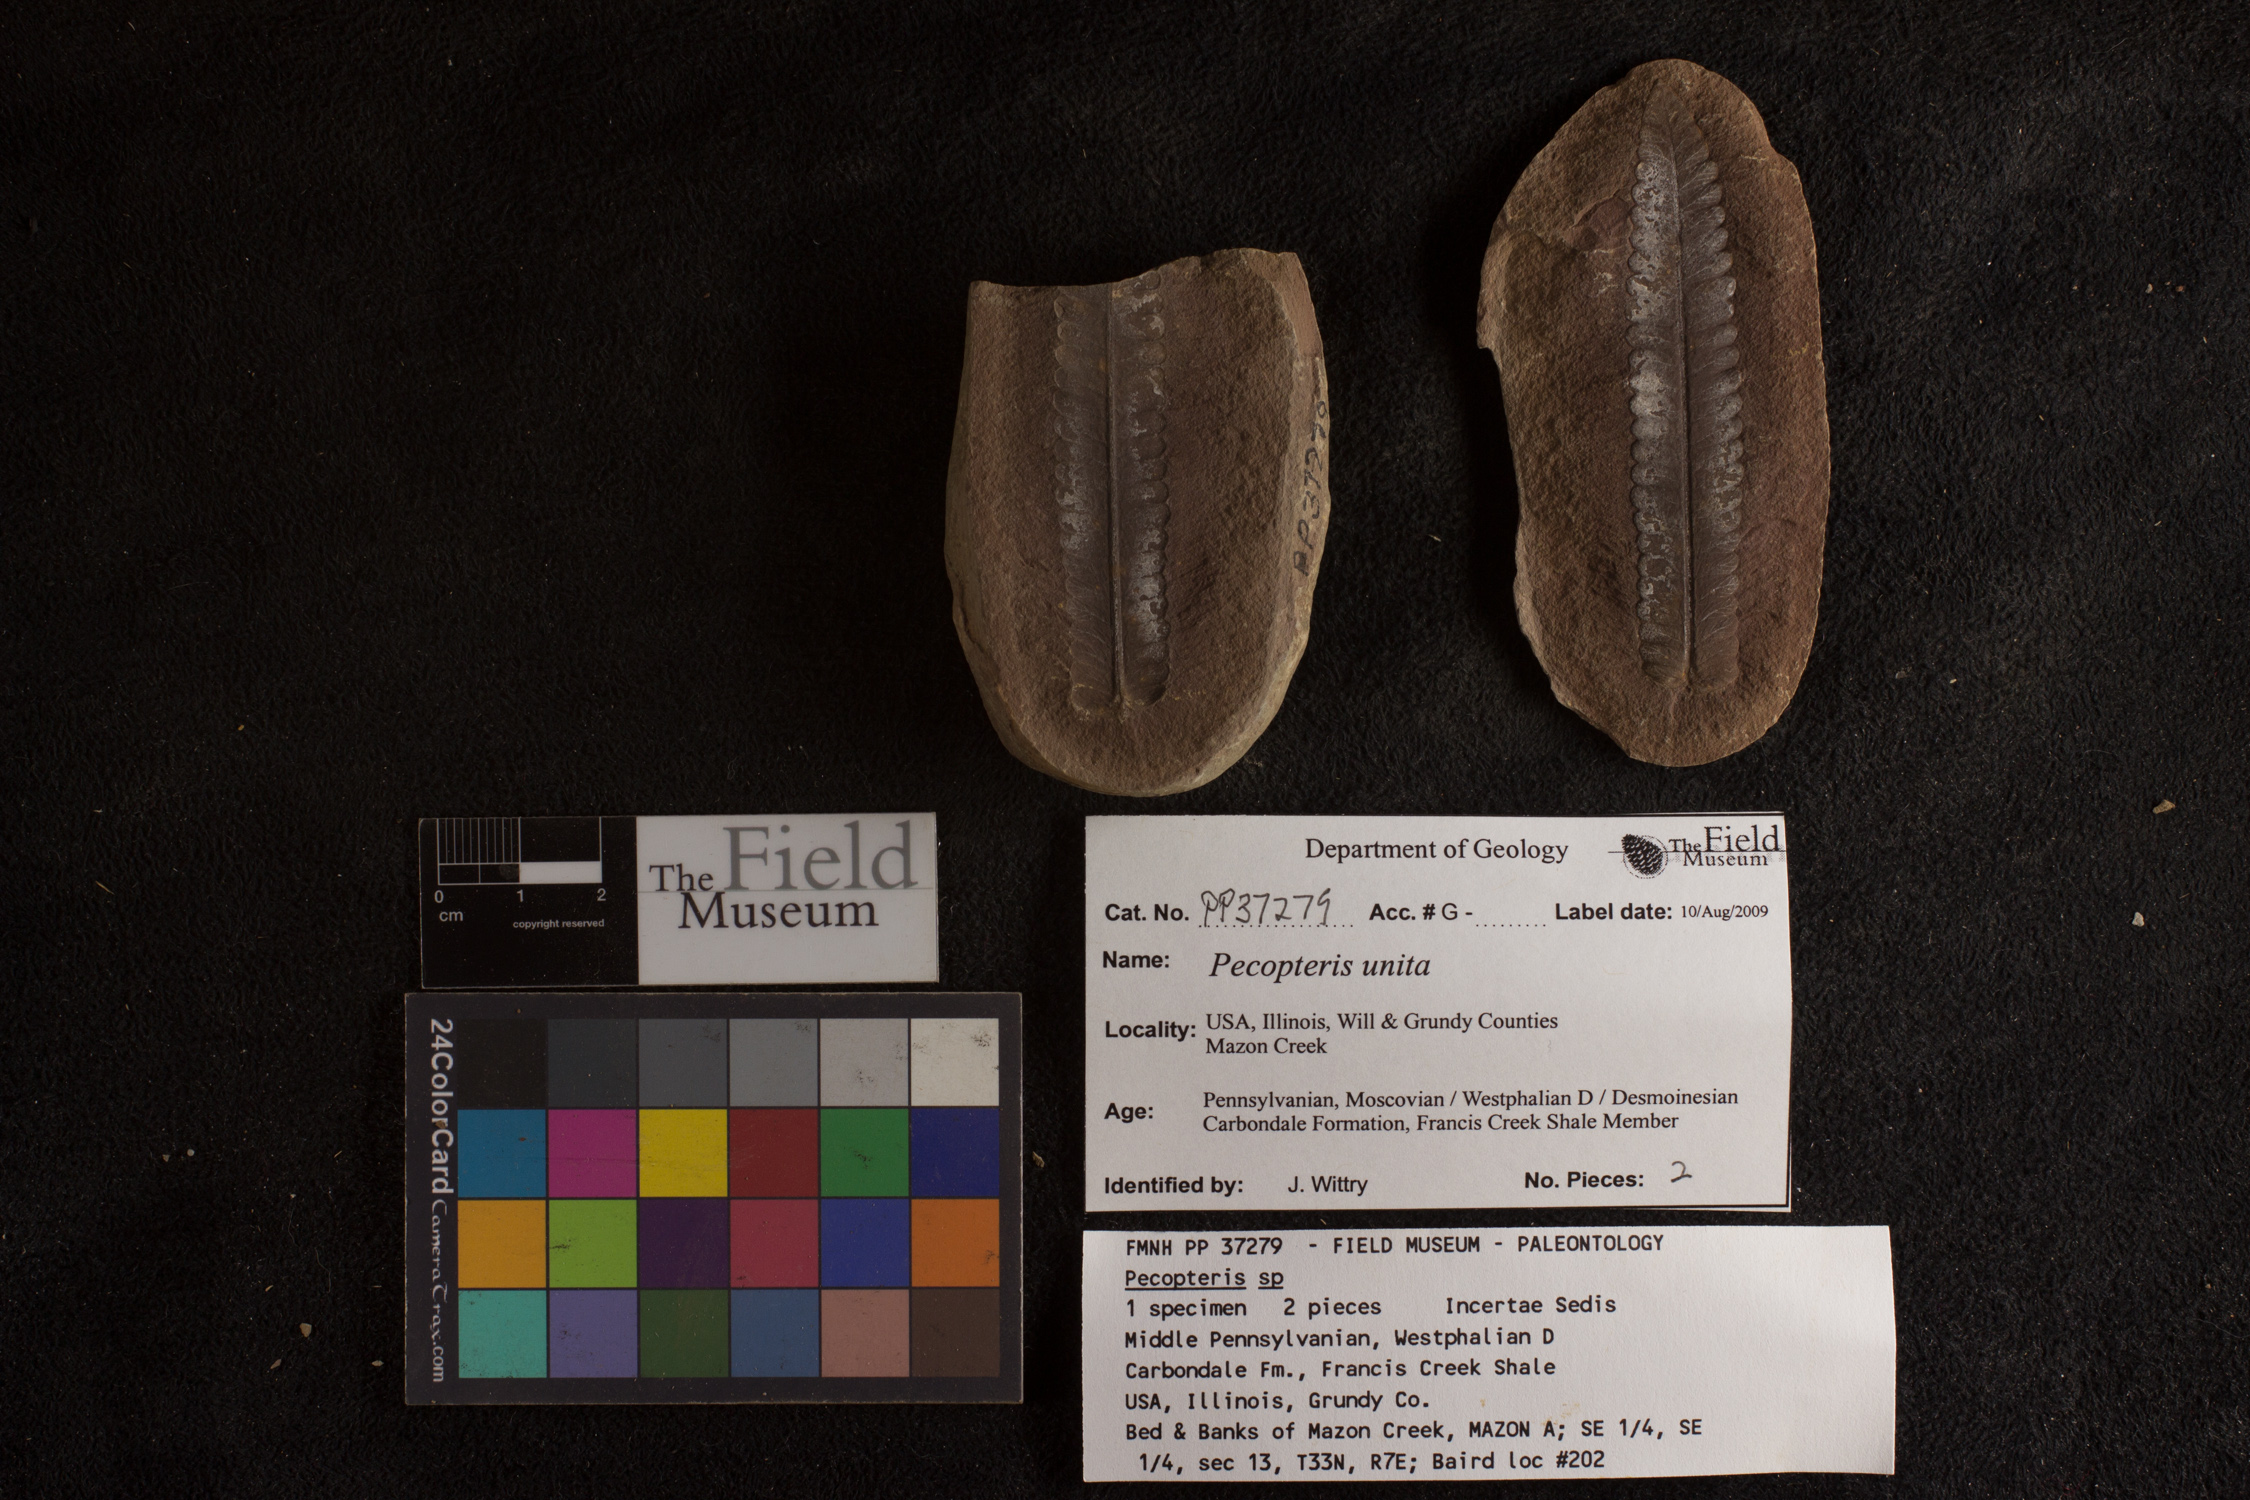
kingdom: Plantae
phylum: Tracheophyta
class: Polypodiopsida
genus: Diplazites
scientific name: Diplazites
